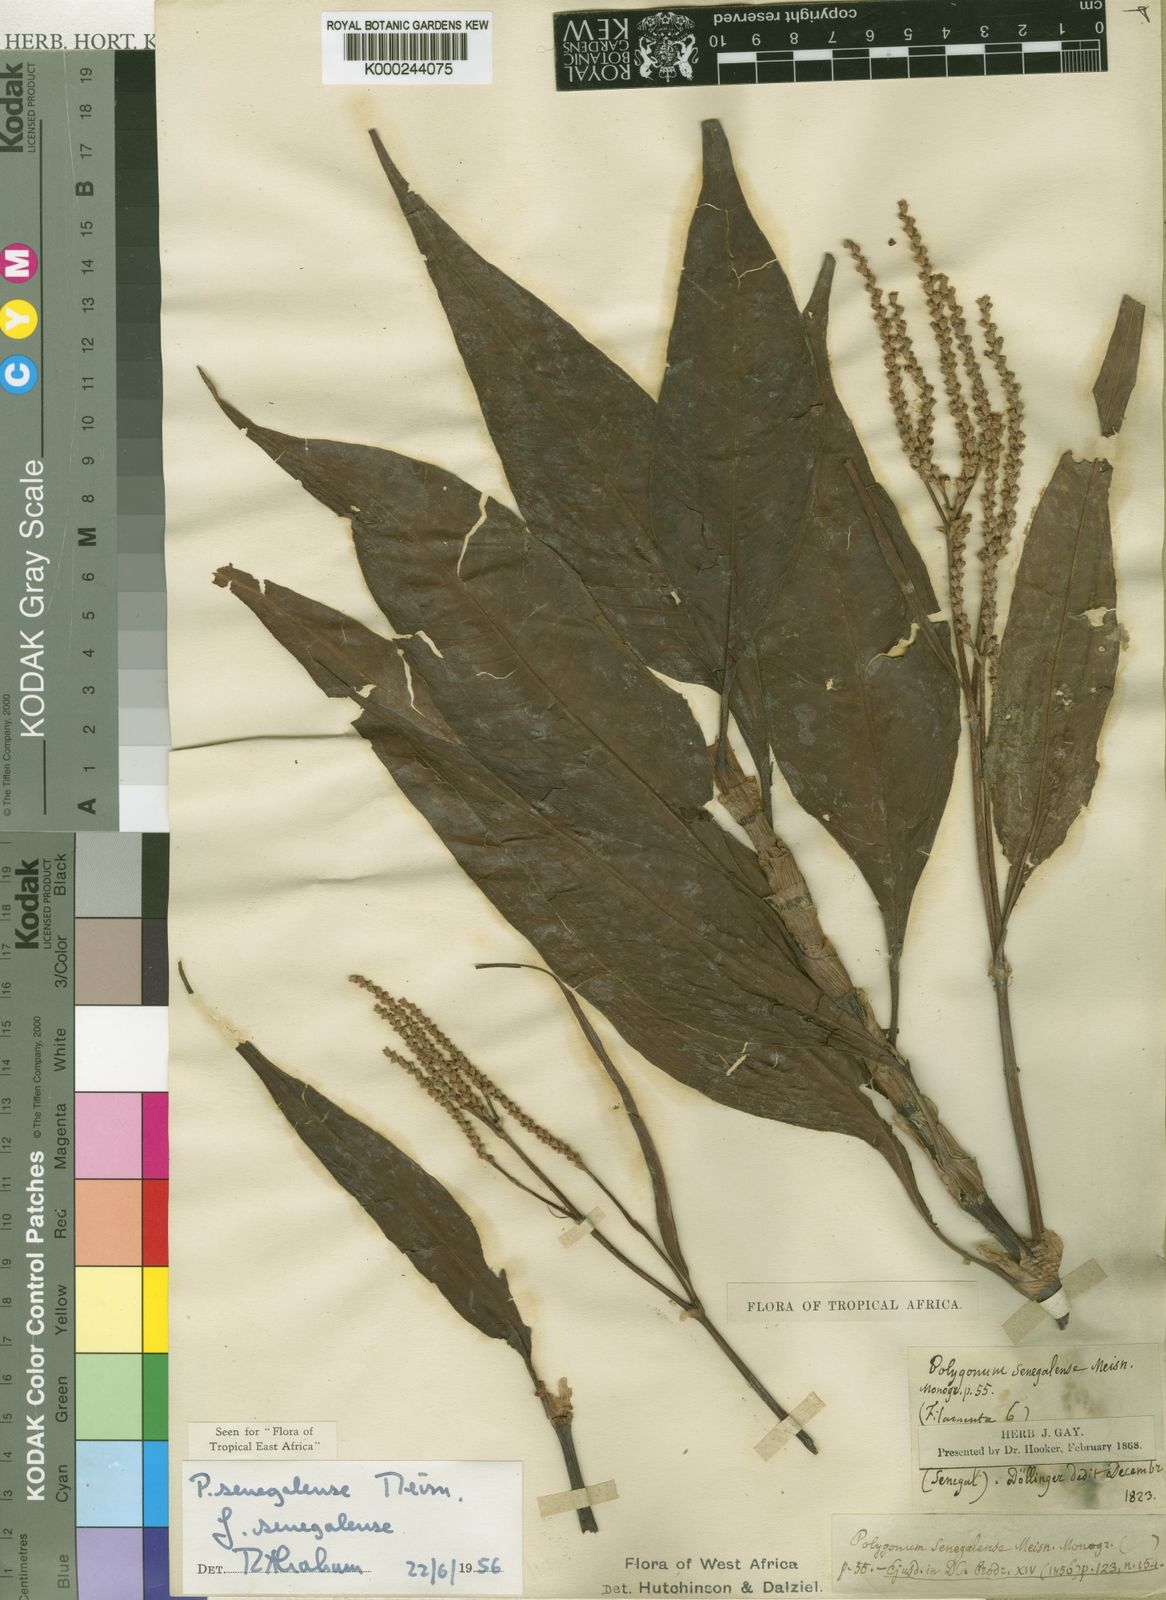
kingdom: Plantae
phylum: Tracheophyta
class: Magnoliopsida
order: Caryophyllales
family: Polygonaceae
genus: Persicaria
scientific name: Persicaria
